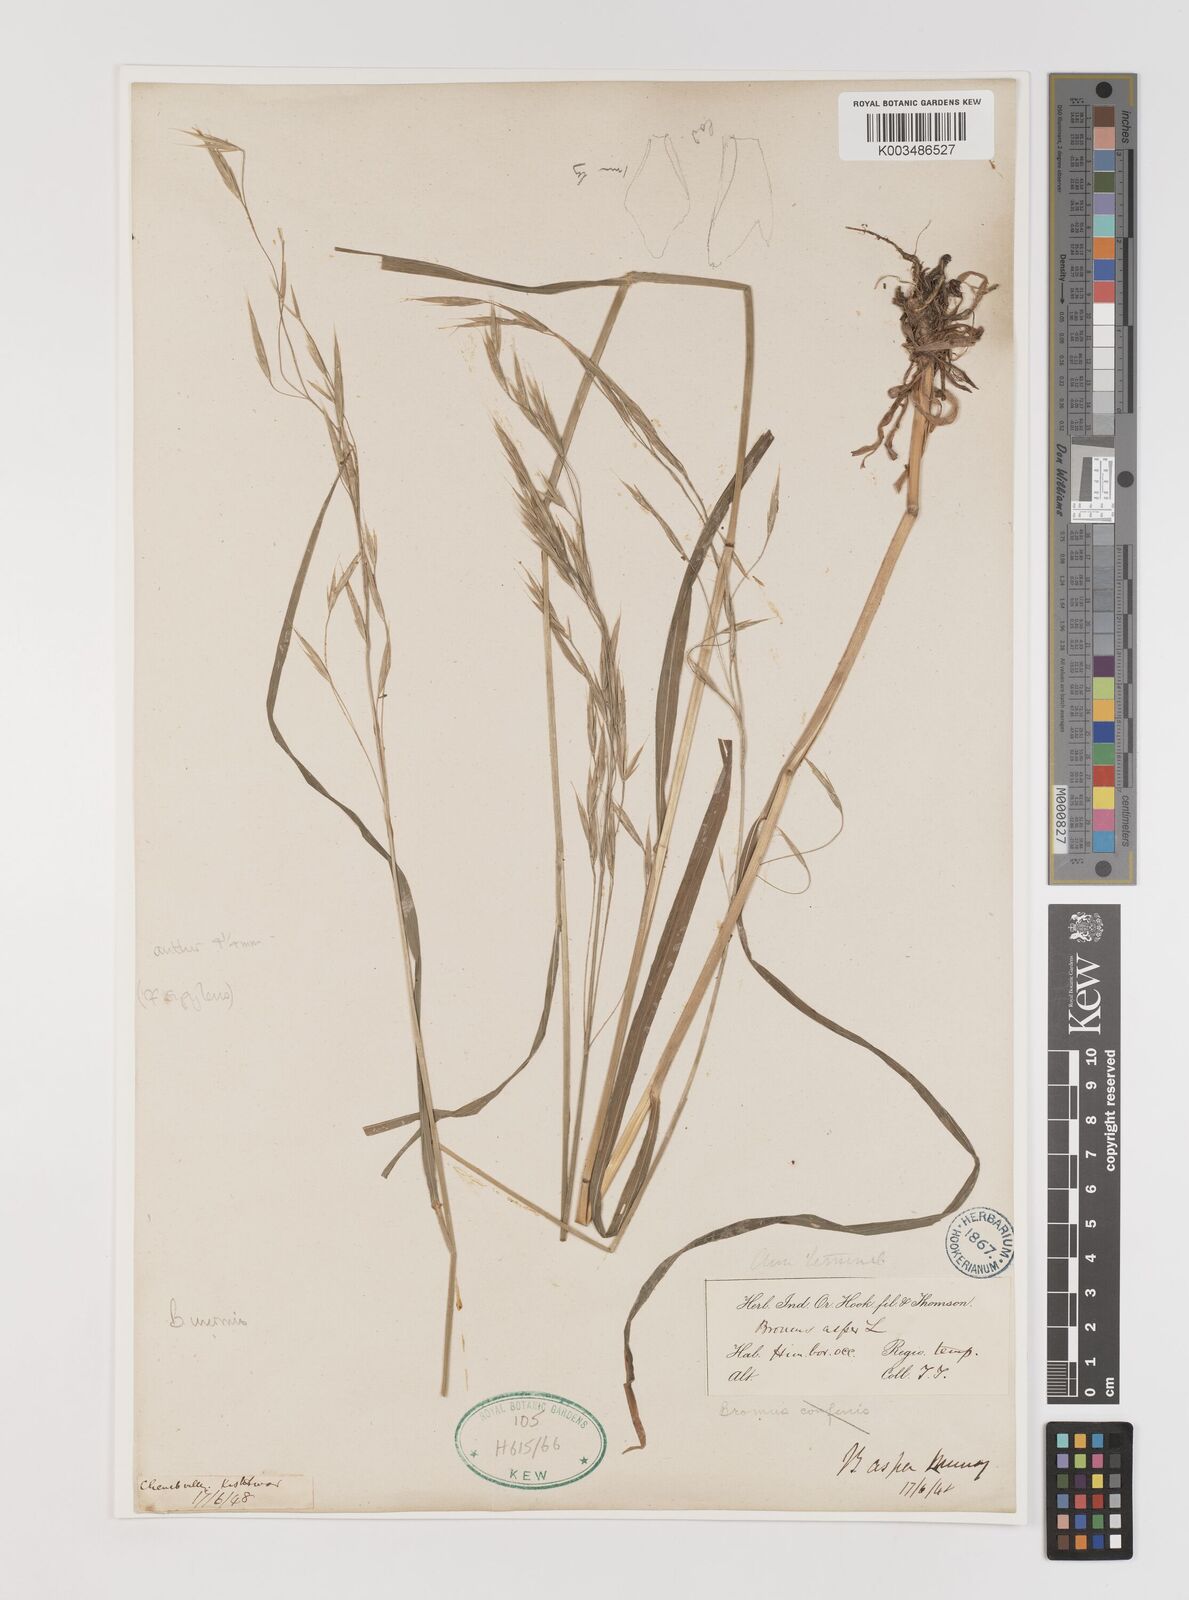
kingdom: Plantae
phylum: Tracheophyta
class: Liliopsida
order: Poales
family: Poaceae
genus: Bromus
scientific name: Bromus inermis
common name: Smooth brome
